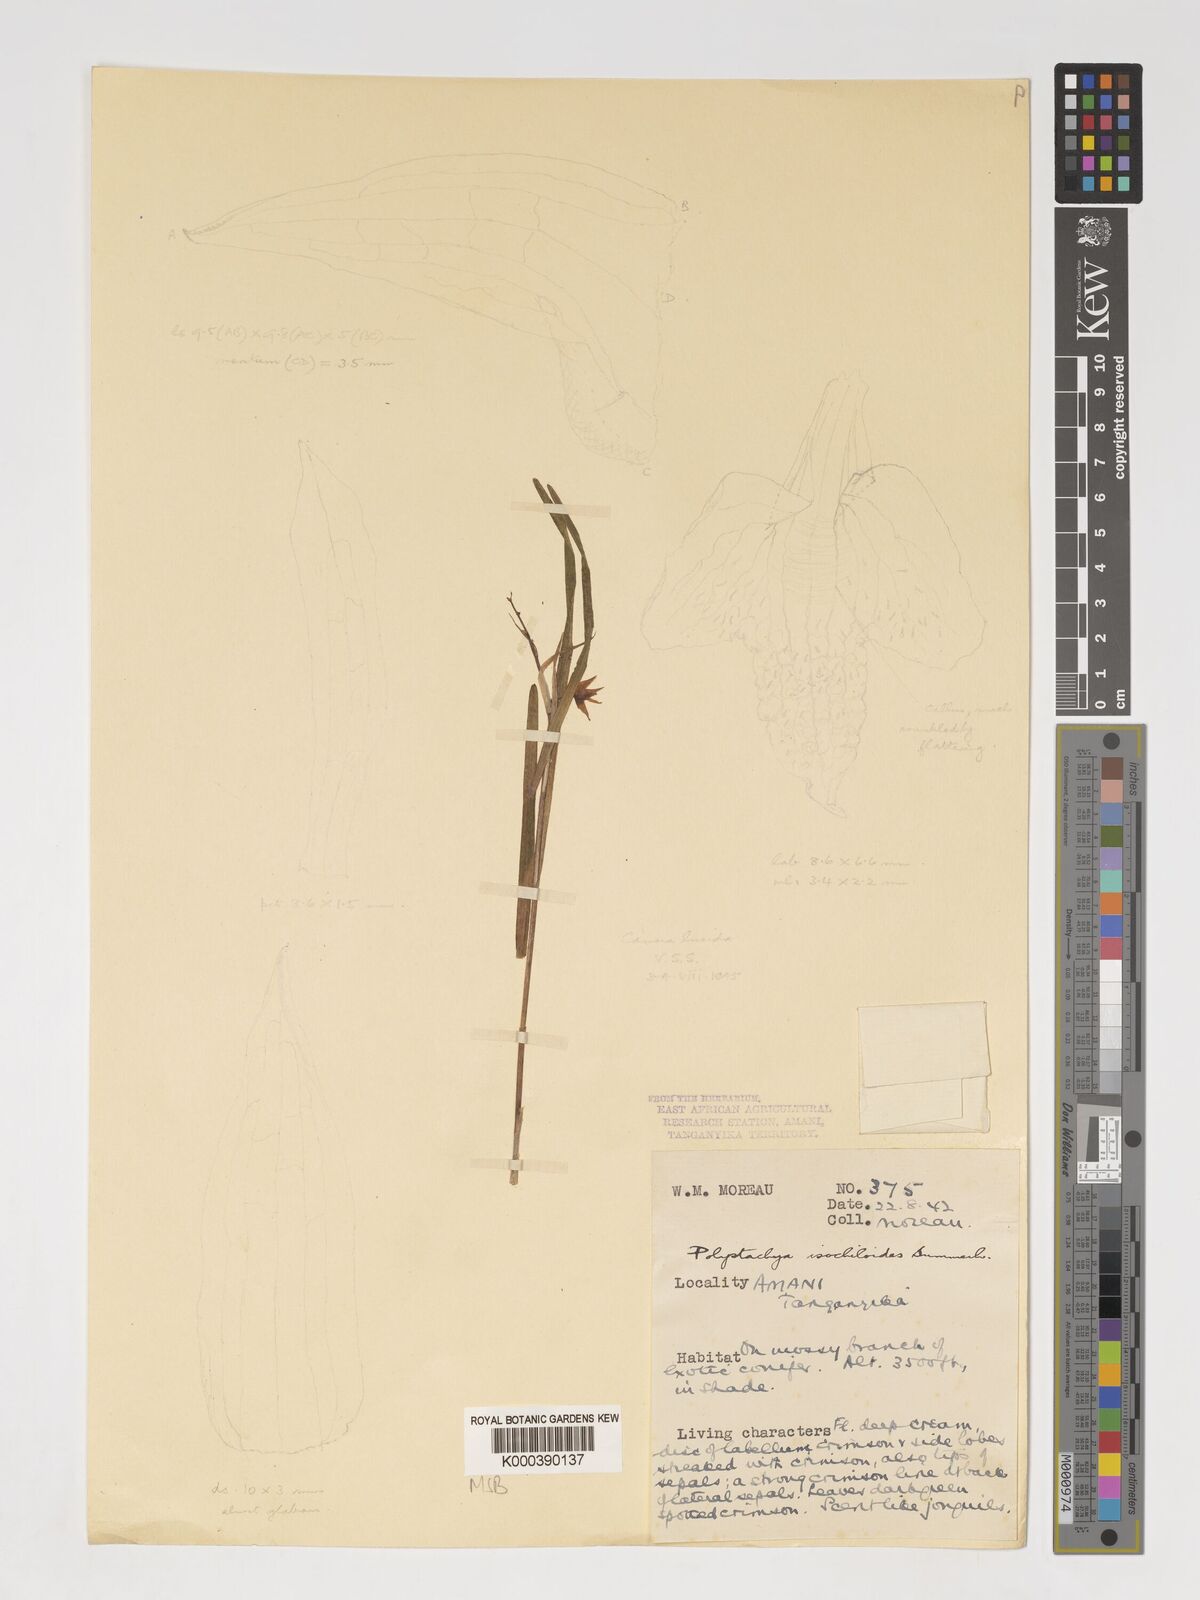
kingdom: Plantae
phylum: Tracheophyta
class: Liliopsida
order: Asparagales
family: Orchidaceae
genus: Polystachya
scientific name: Polystachya isochiloides
